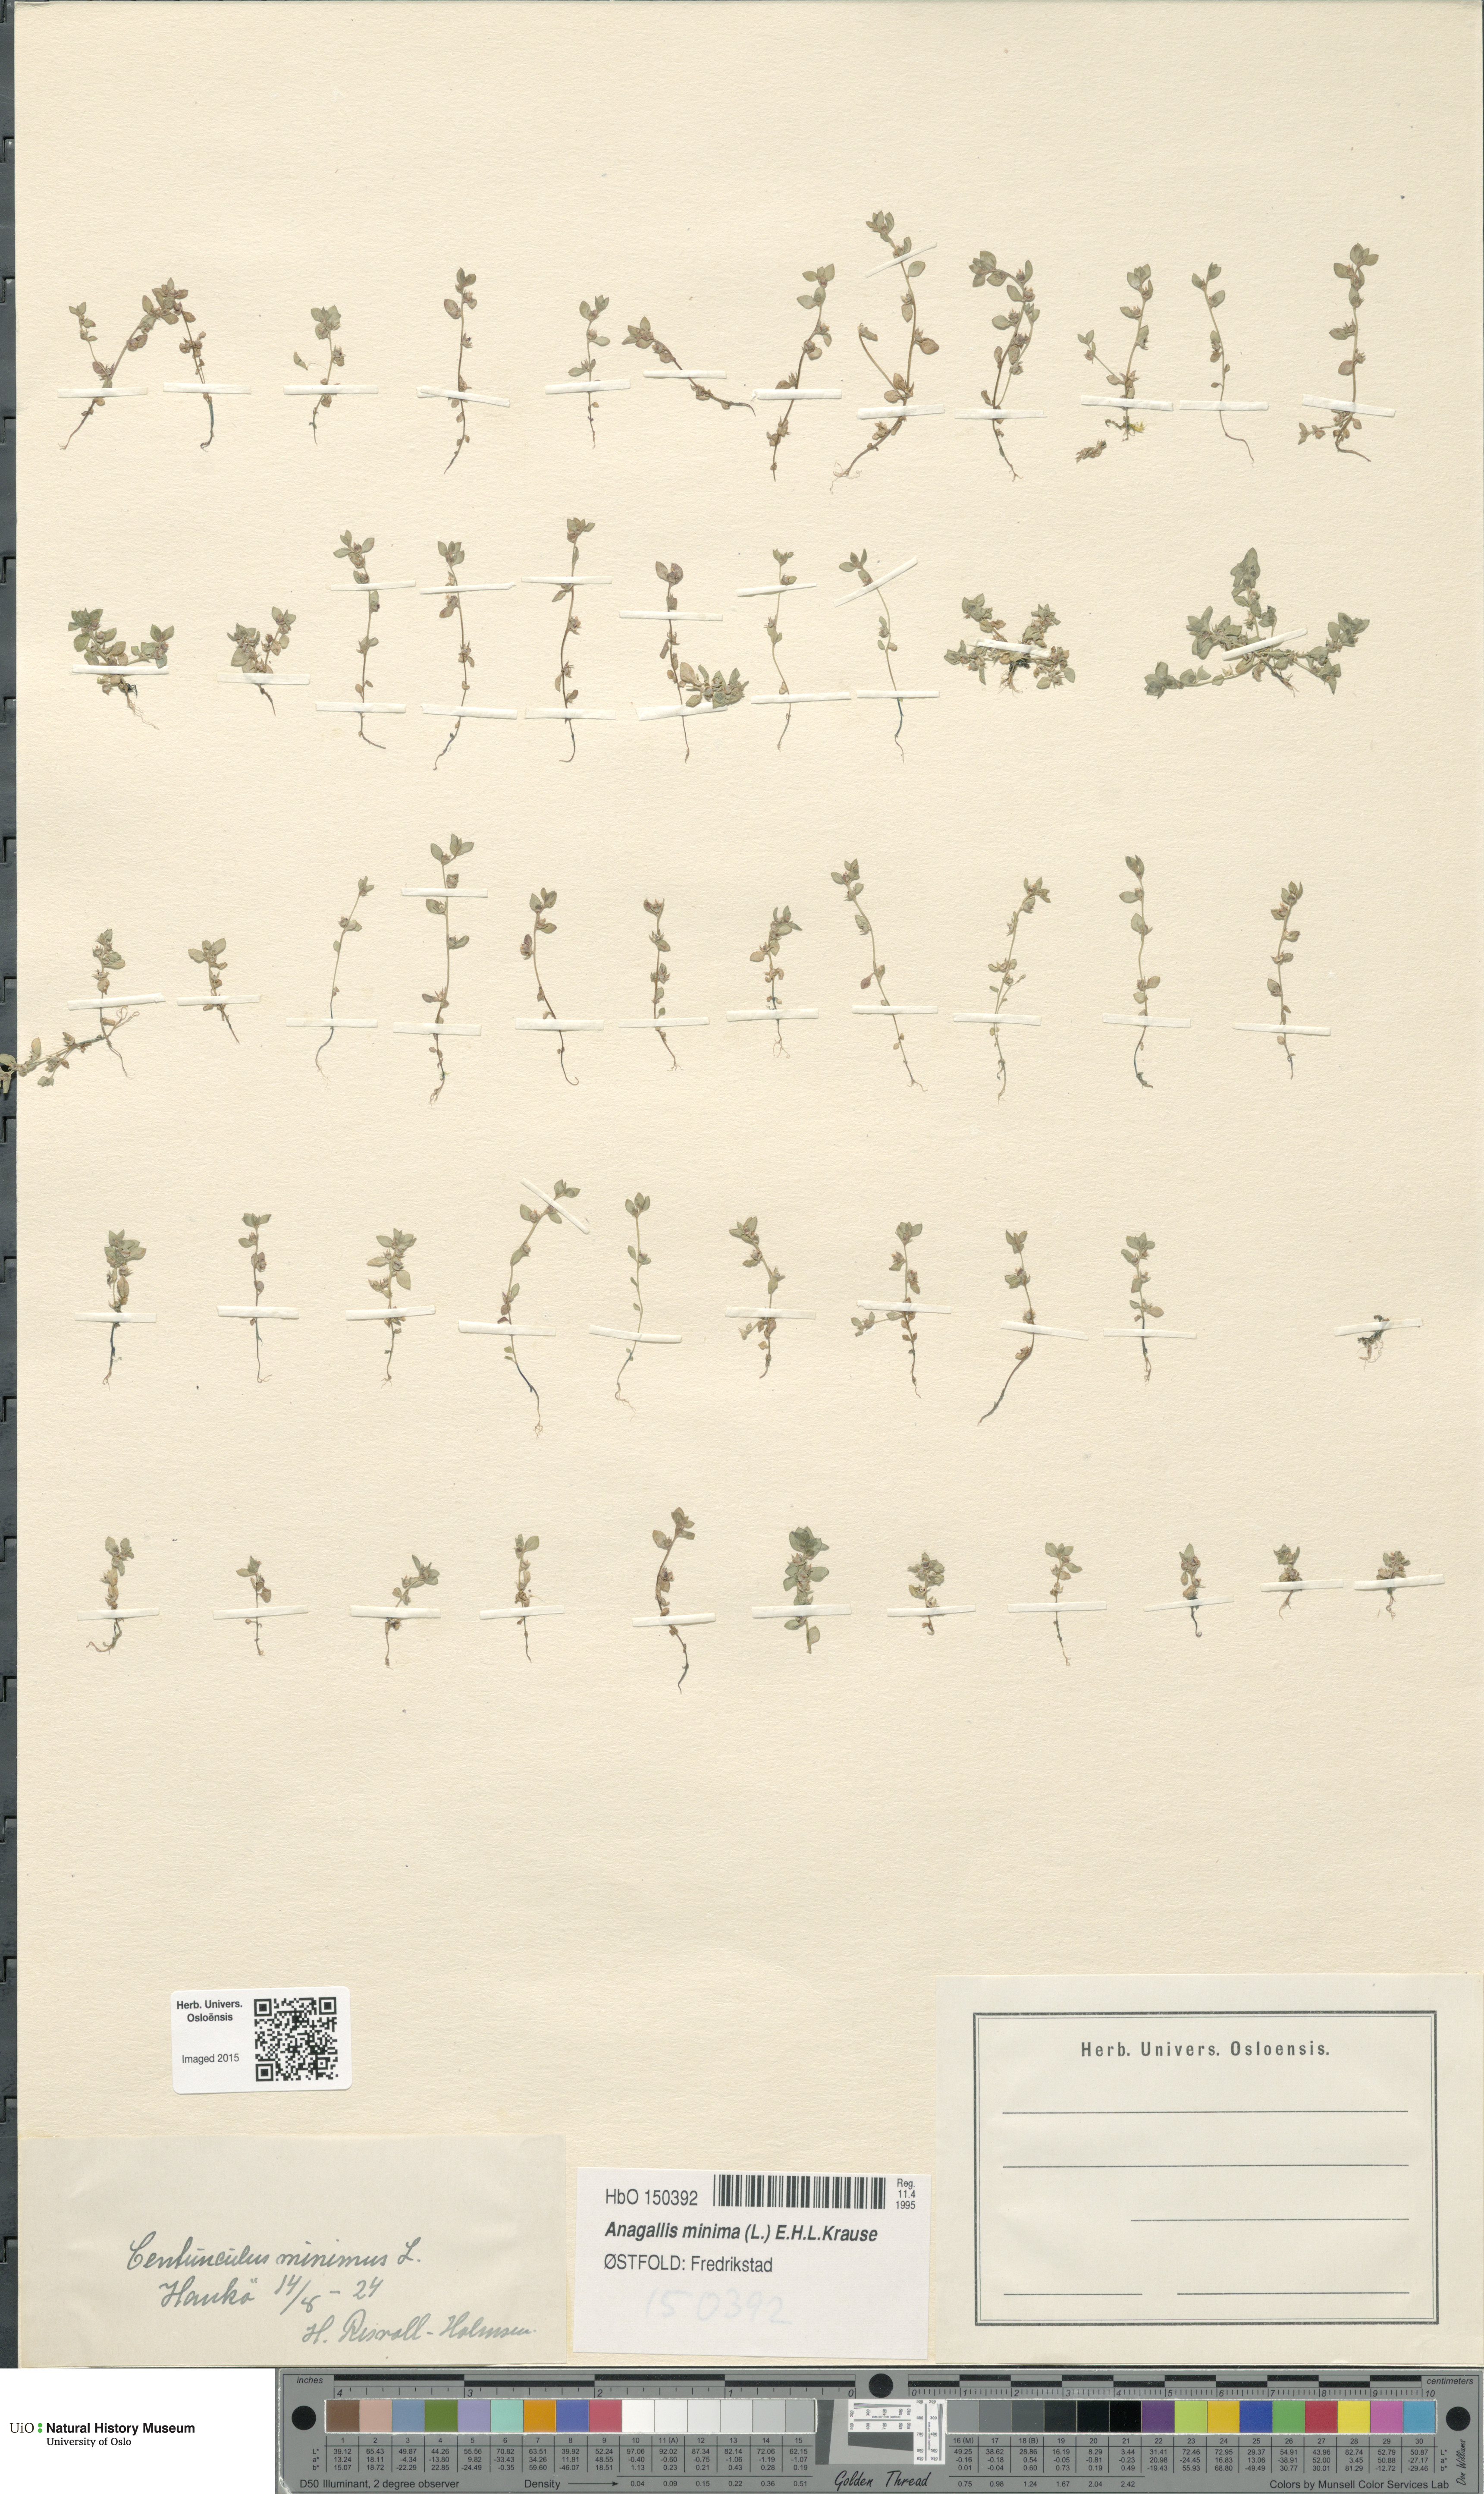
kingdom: Plantae
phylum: Tracheophyta
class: Magnoliopsida
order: Ericales
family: Primulaceae
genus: Lysimachia
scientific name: Lysimachia minima
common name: Chaffweed
